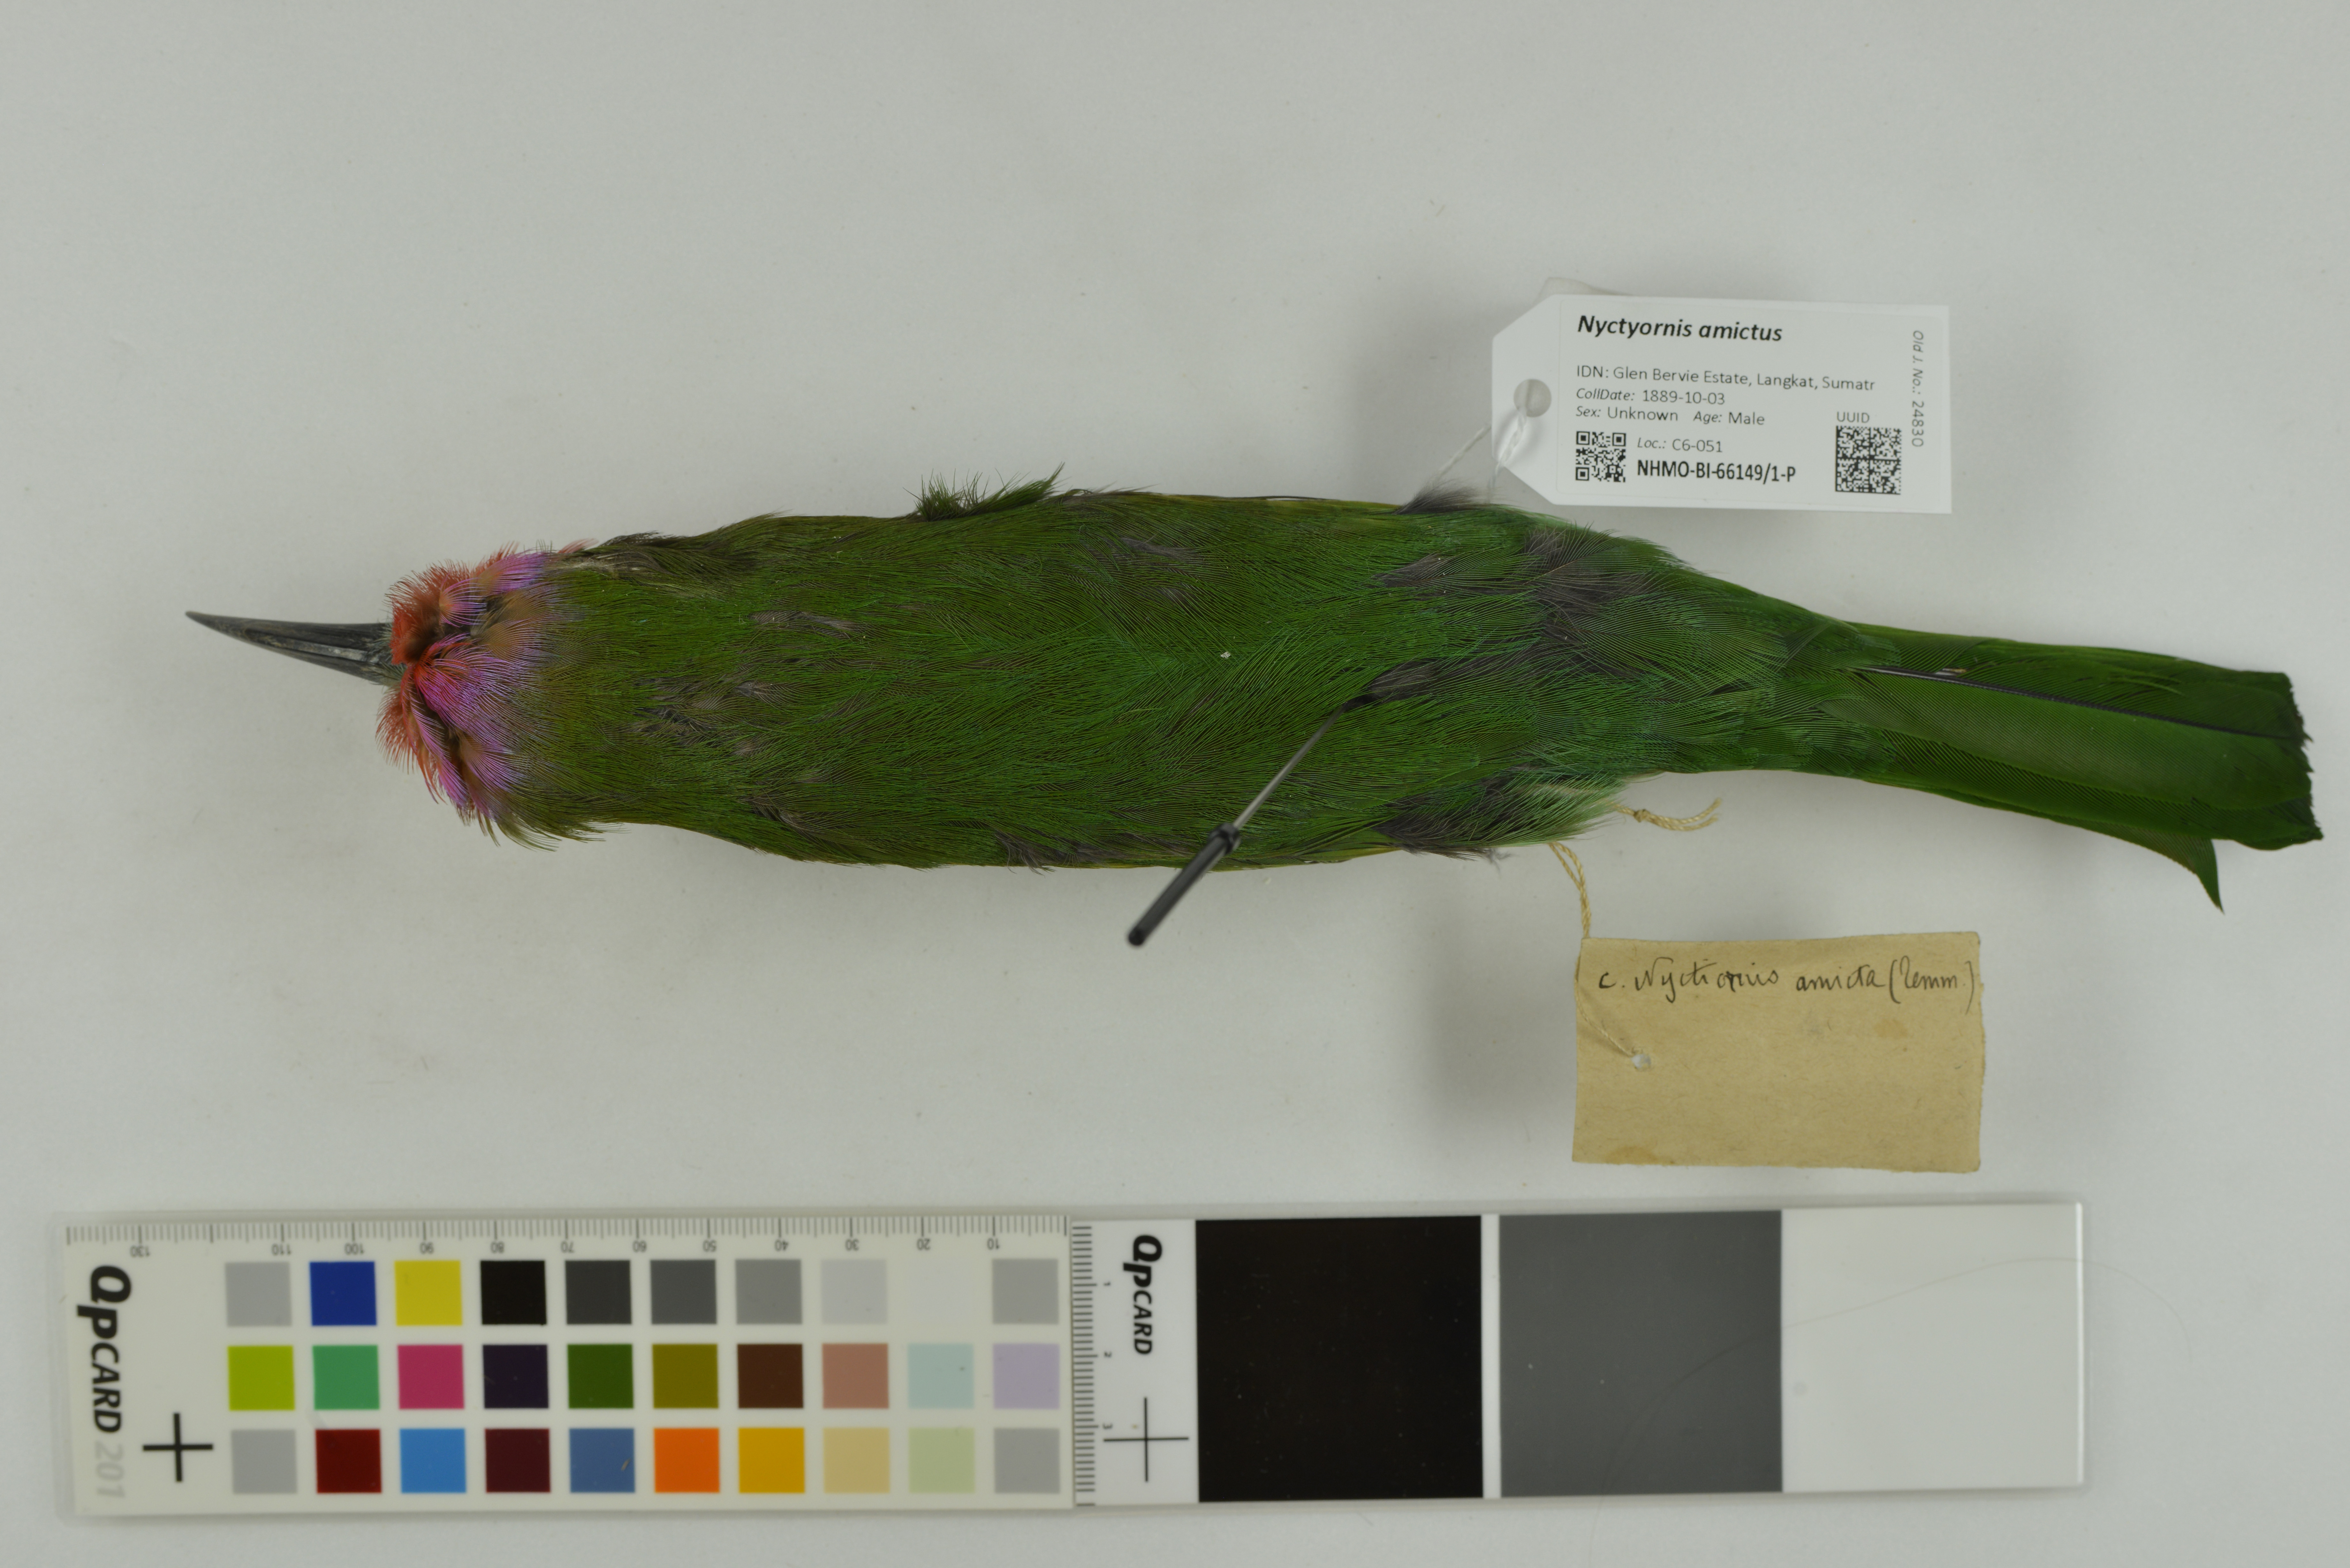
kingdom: Animalia
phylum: Chordata
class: Aves
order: Coraciiformes
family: Meropidae
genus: Nyctyornis
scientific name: Nyctyornis amictus
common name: Red-bearded bee-eater
